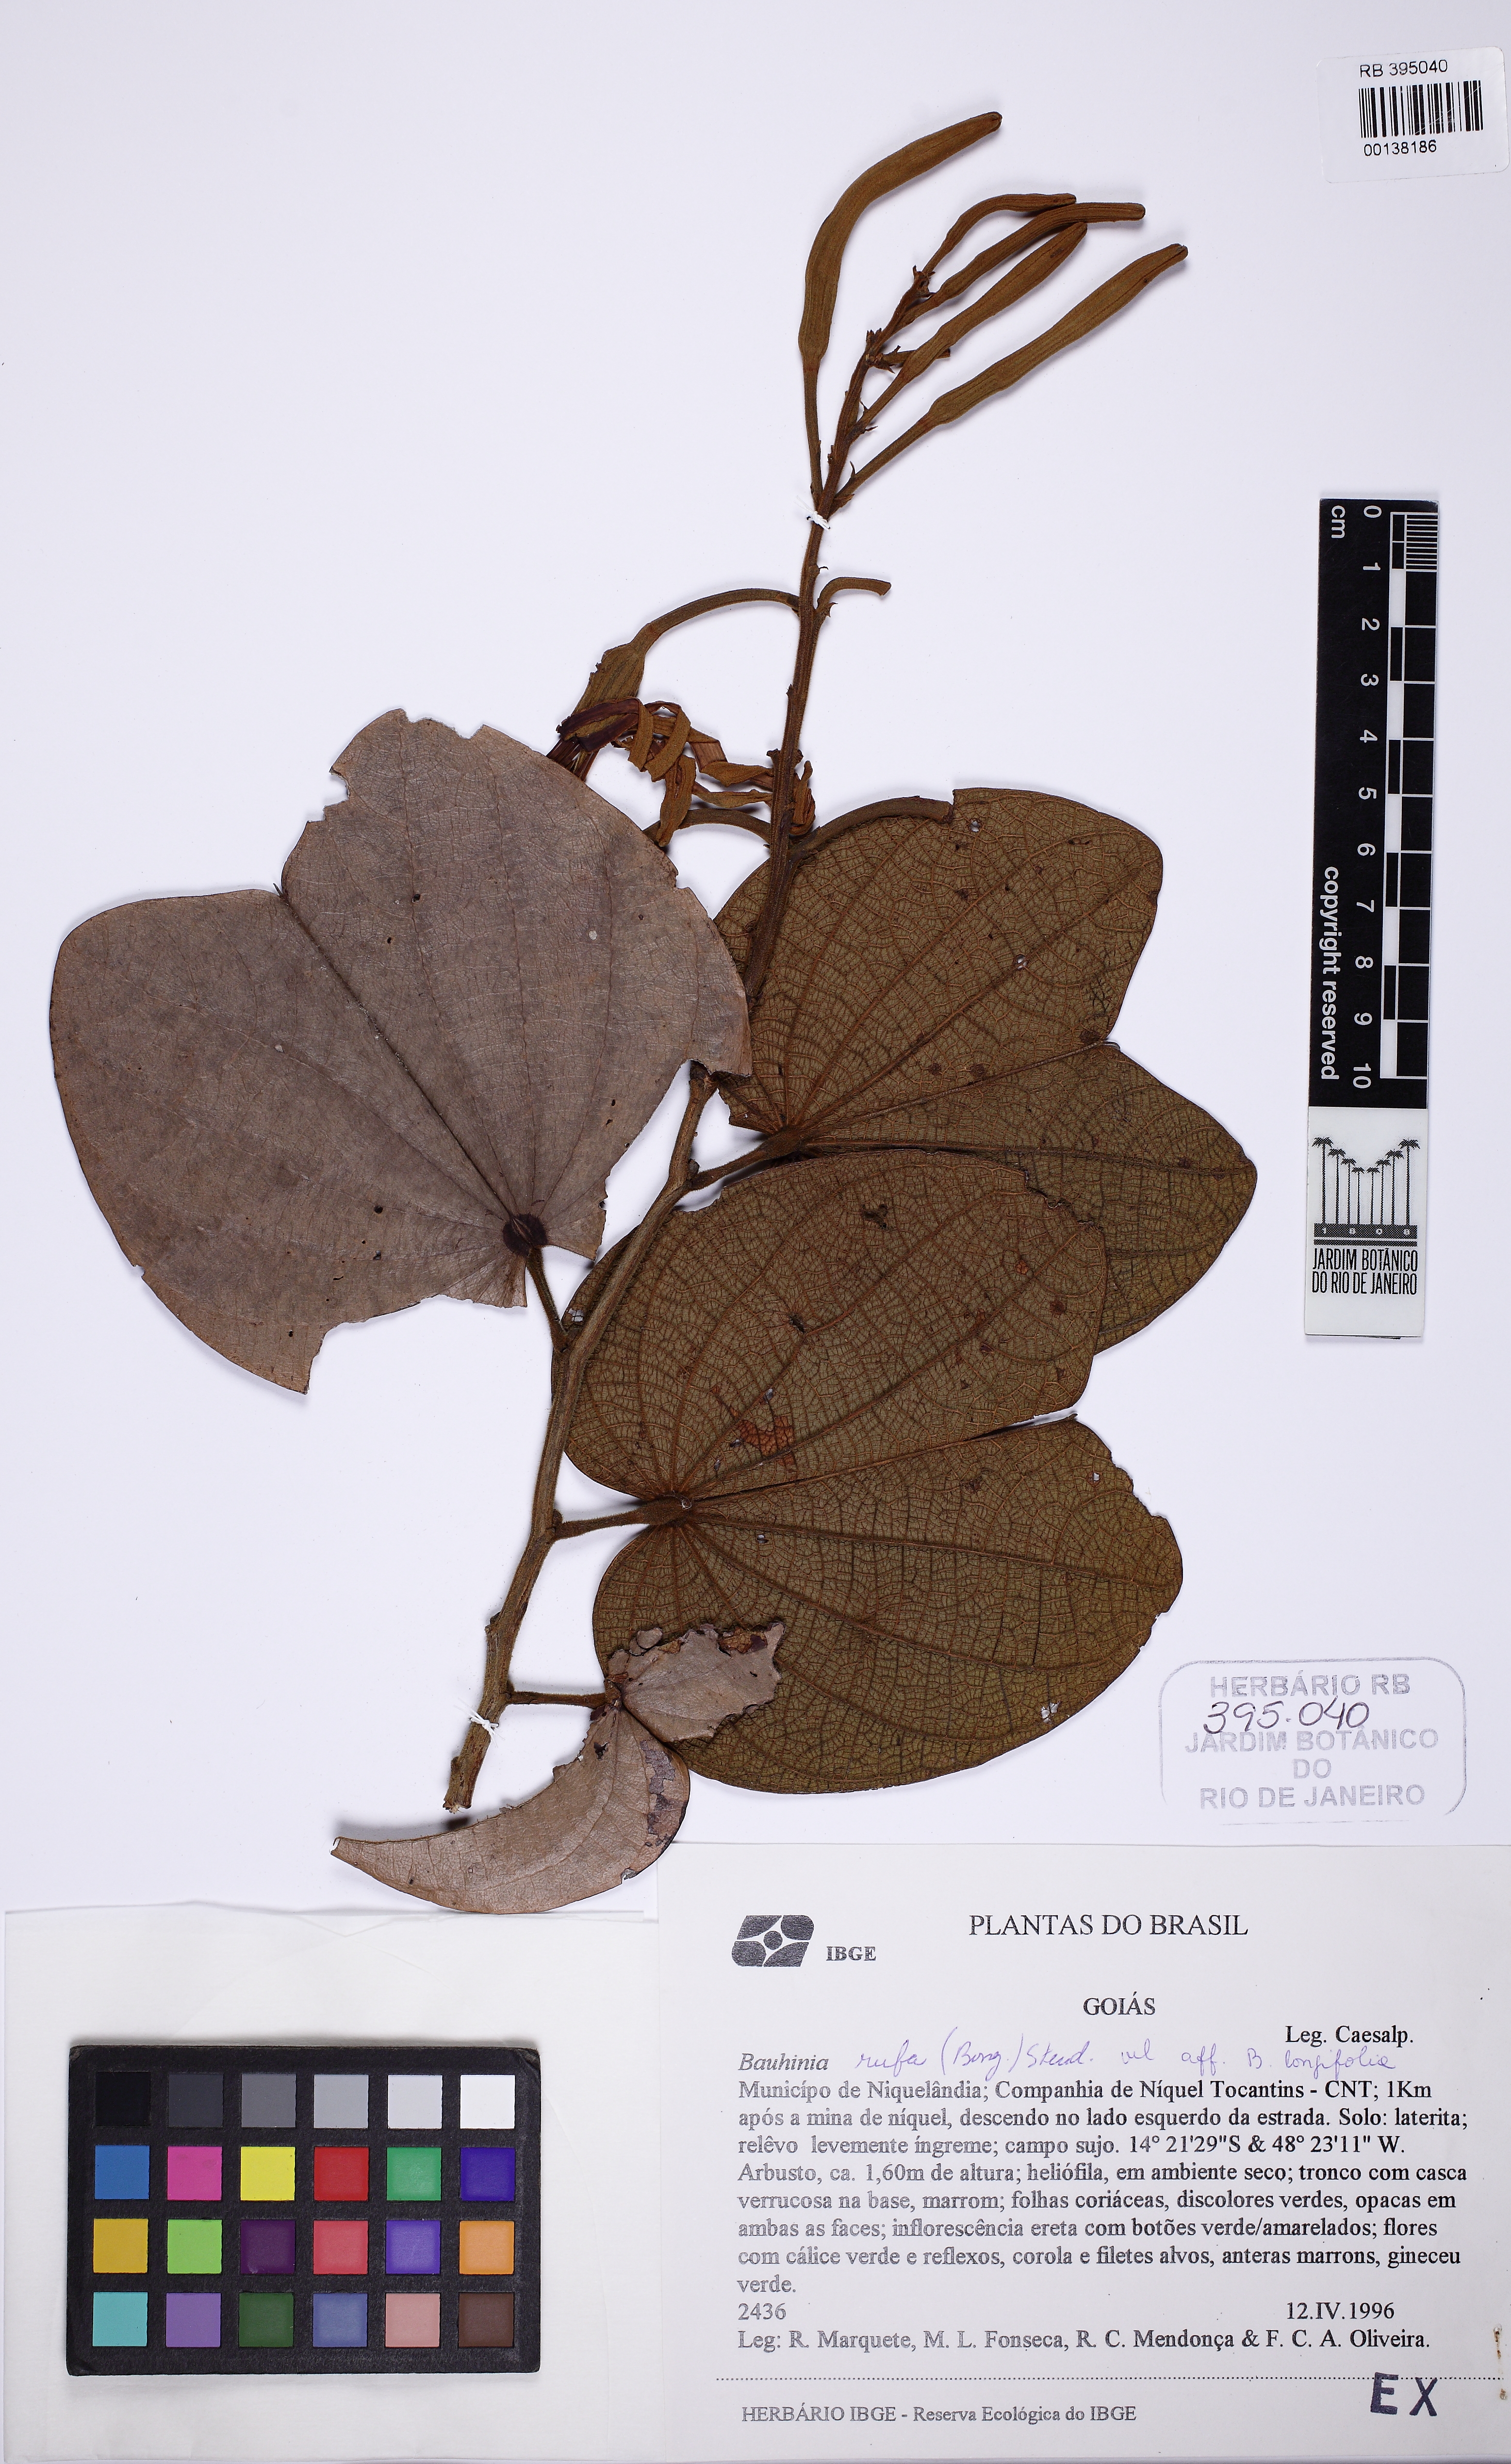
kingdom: Plantae
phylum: Tracheophyta
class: Magnoliopsida
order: Fabales
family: Fabaceae
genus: Bauhinia
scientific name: Bauhinia rufa
